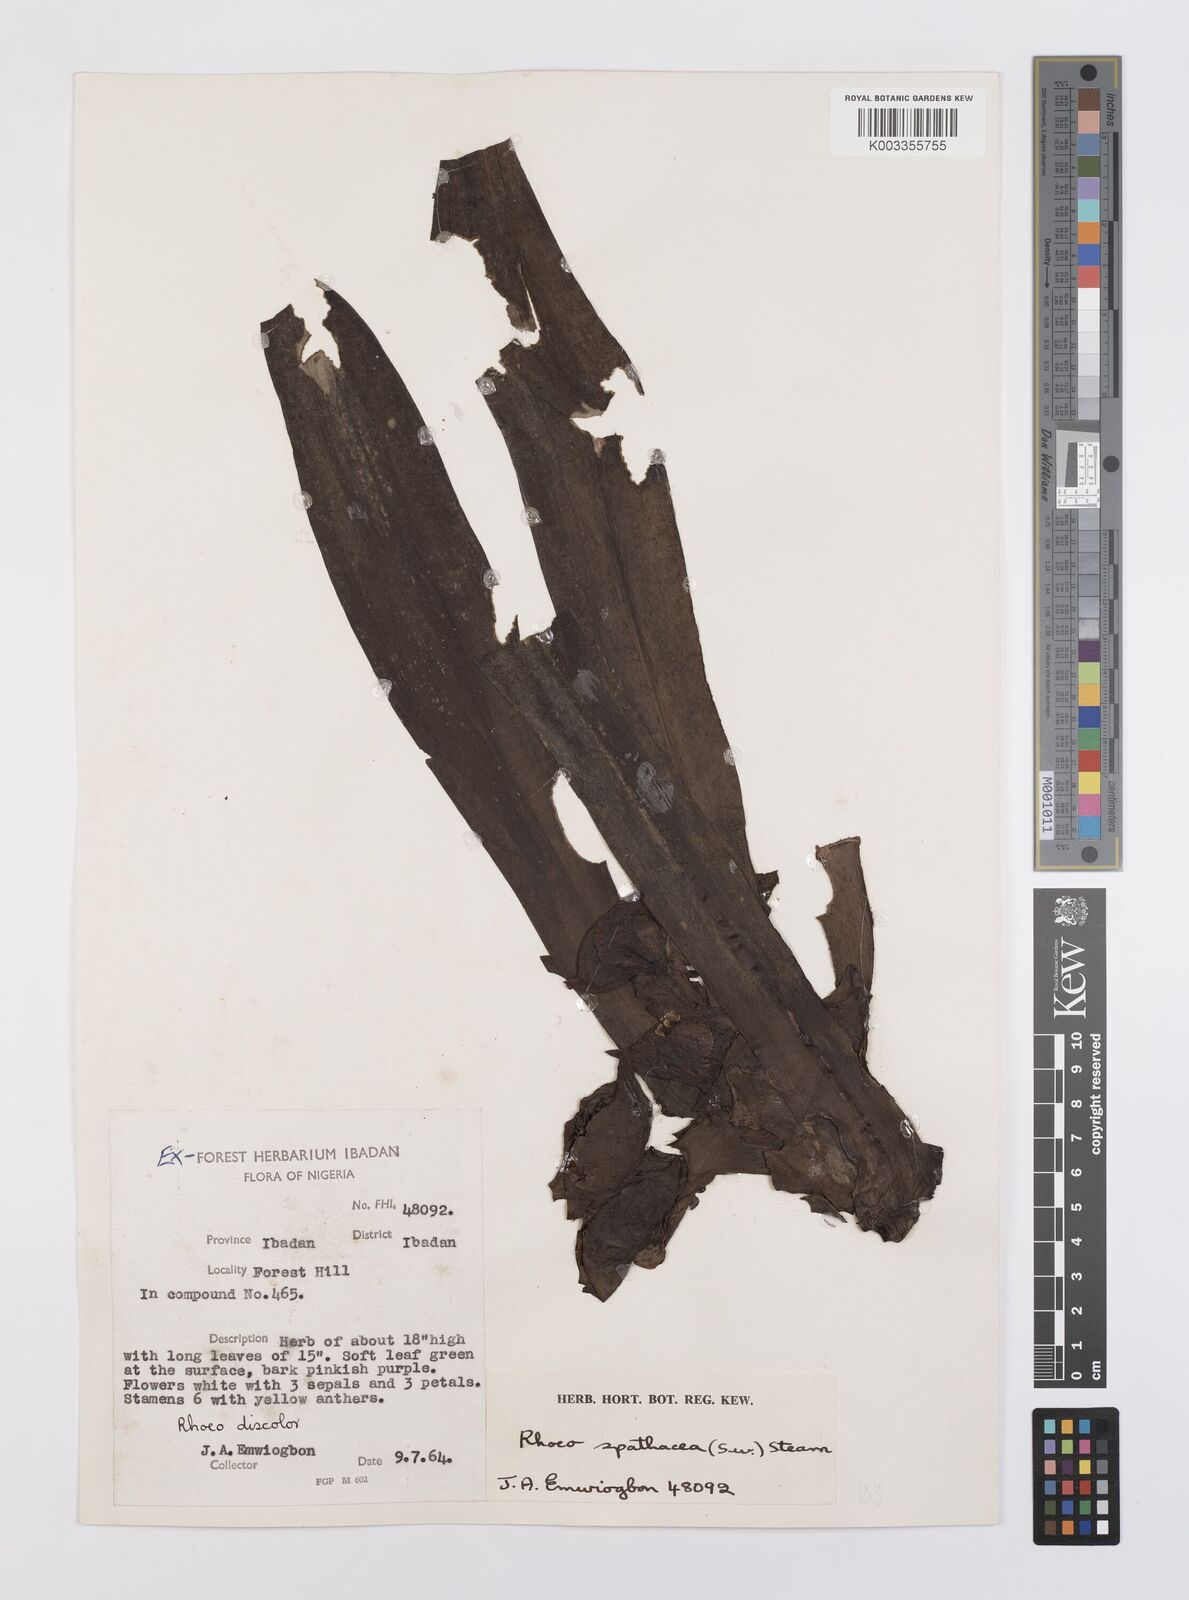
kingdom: Plantae
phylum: Tracheophyta
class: Liliopsida
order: Commelinales
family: Commelinaceae
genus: Tradescantia
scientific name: Tradescantia spathacea
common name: Boatlily
